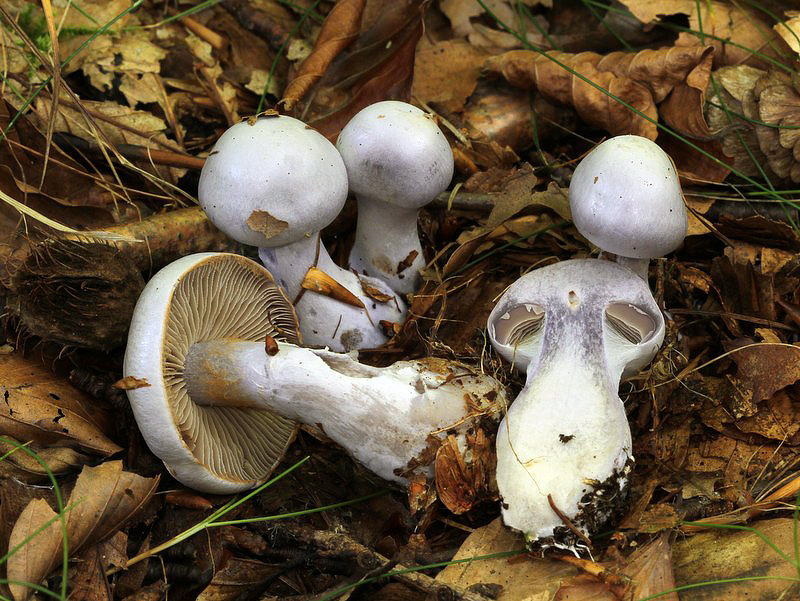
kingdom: Fungi
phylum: Basidiomycota
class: Agaricomycetes
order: Agaricales
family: Cortinariaceae
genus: Cortinarius
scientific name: Cortinarius alboviolaceus
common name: lysviolet slørhat
